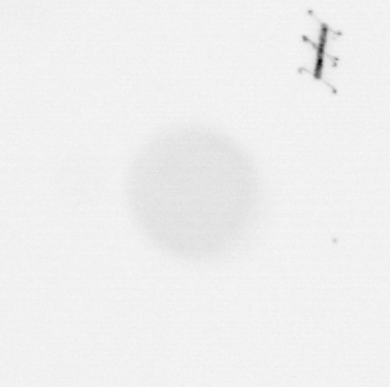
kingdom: Chromista
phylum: Ochrophyta
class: Bacillariophyceae
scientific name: Bacillariophyceae
